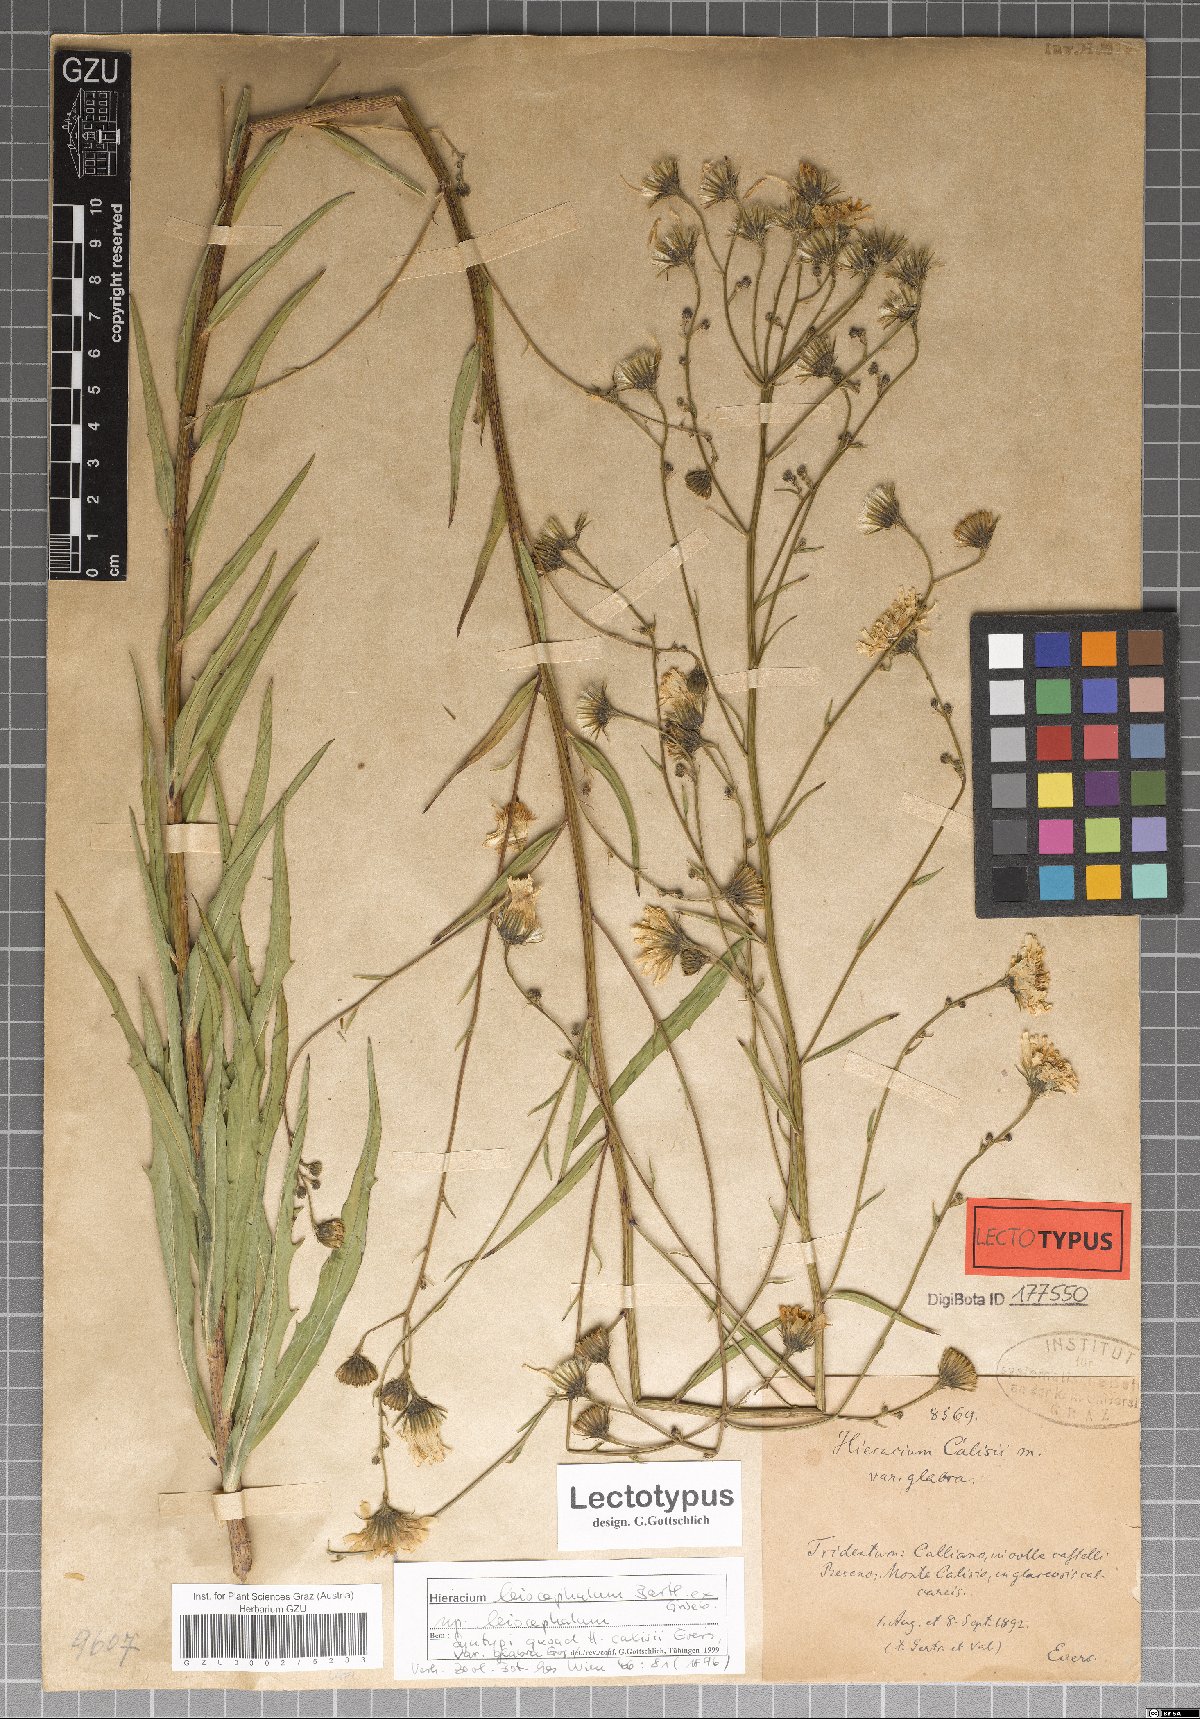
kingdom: Plantae
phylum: Tracheophyta
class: Magnoliopsida
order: Asterales
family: Asteraceae
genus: Hieracium
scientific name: Hieracium leiocephalum
